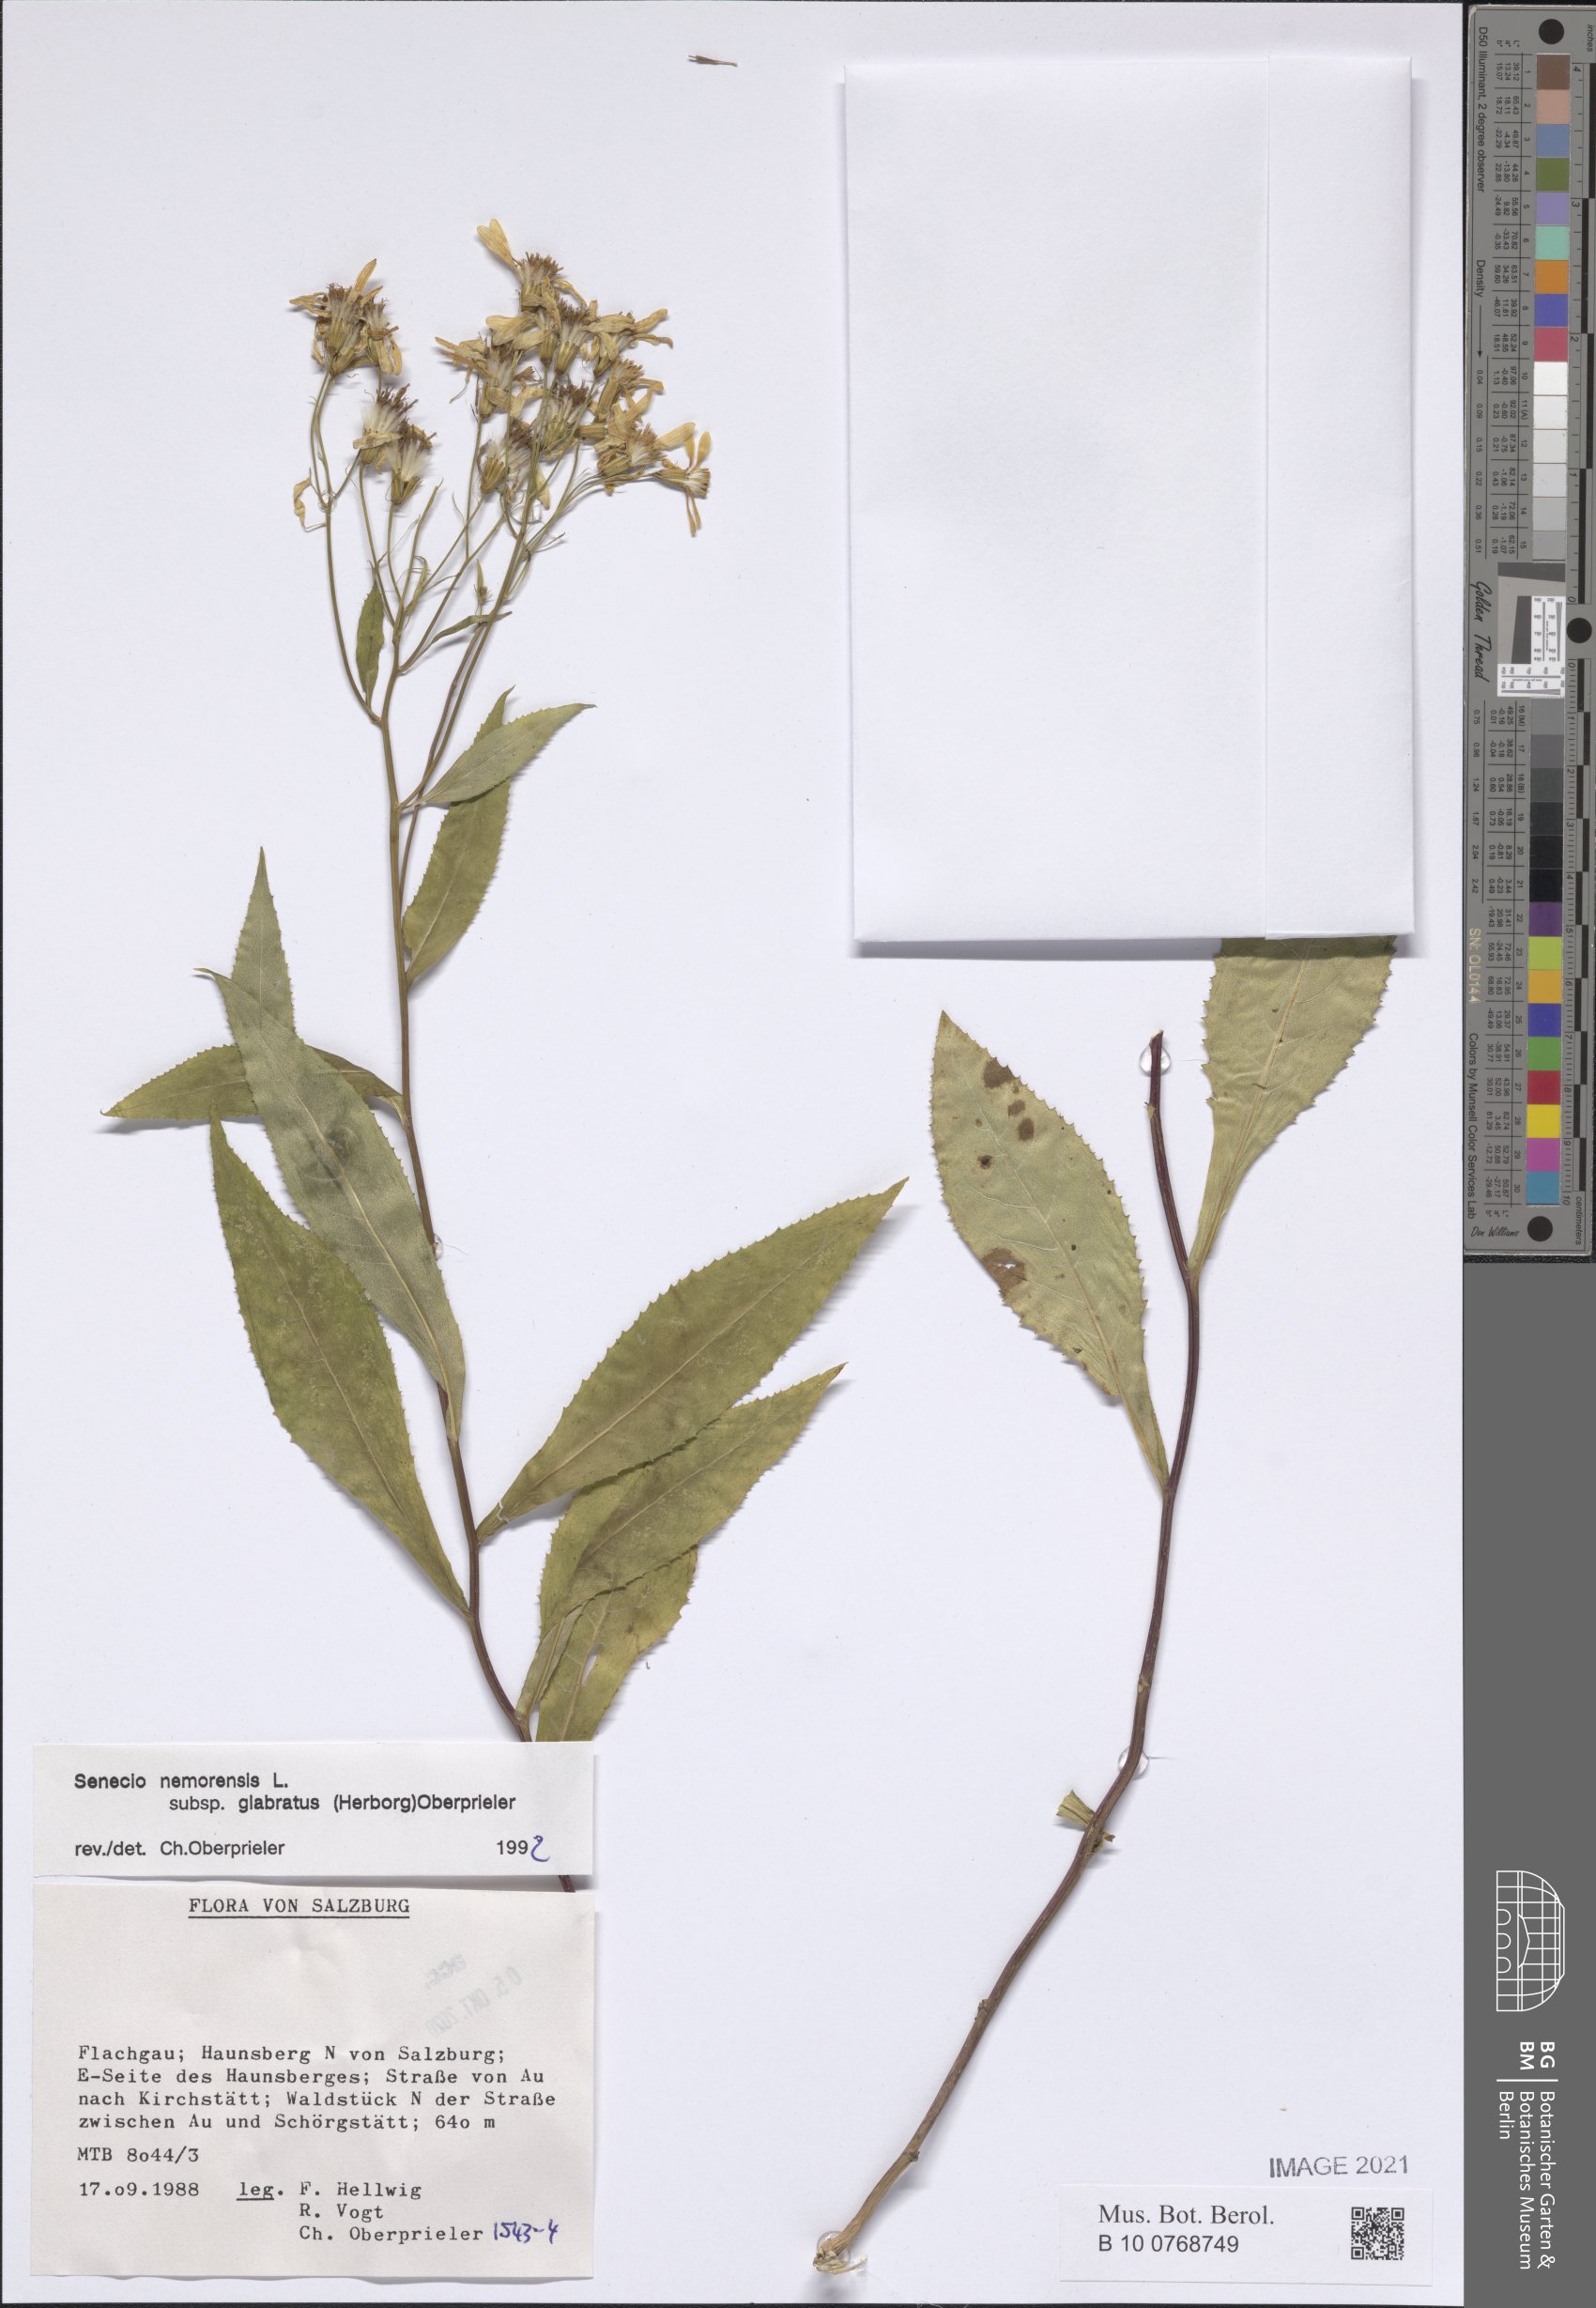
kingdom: Plantae
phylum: Tracheophyta
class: Magnoliopsida
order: Asterales
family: Asteraceae
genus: Senecio
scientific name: Senecio germanicus
